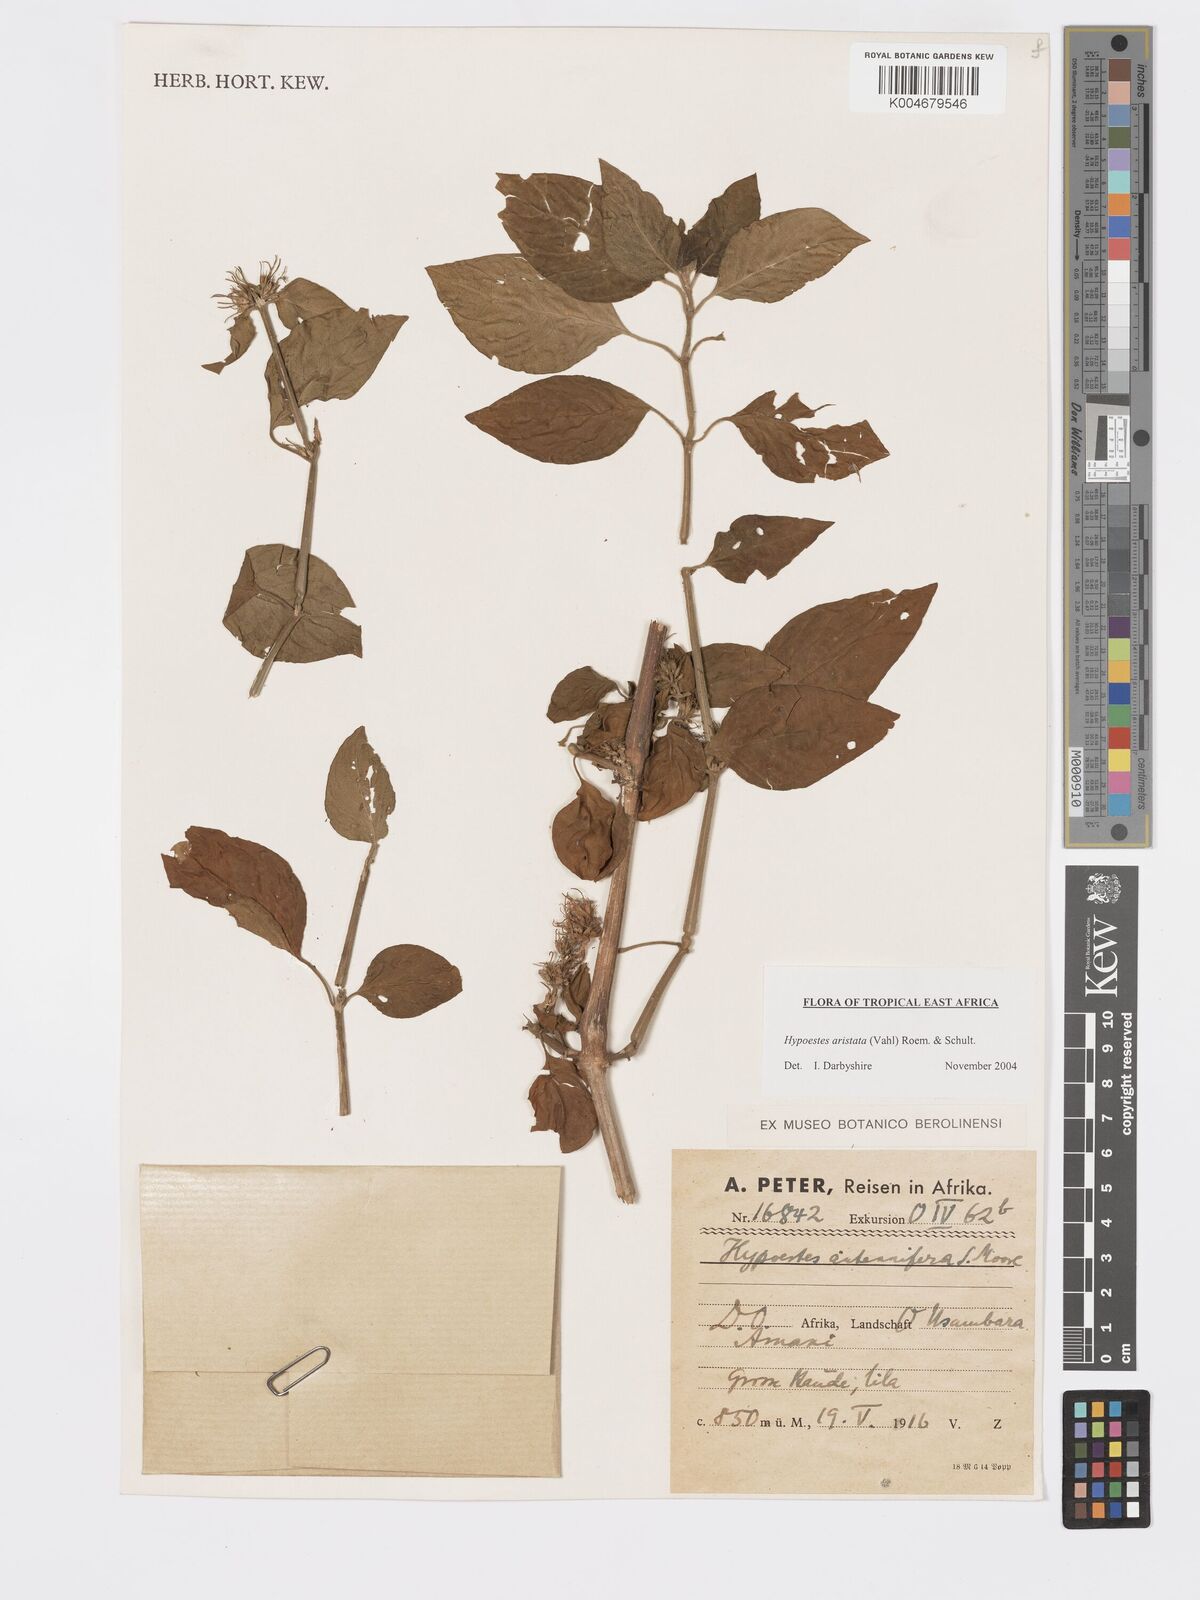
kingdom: Plantae
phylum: Tracheophyta
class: Magnoliopsida
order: Lamiales
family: Acanthaceae
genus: Hypoestes
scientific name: Hypoestes aristata
